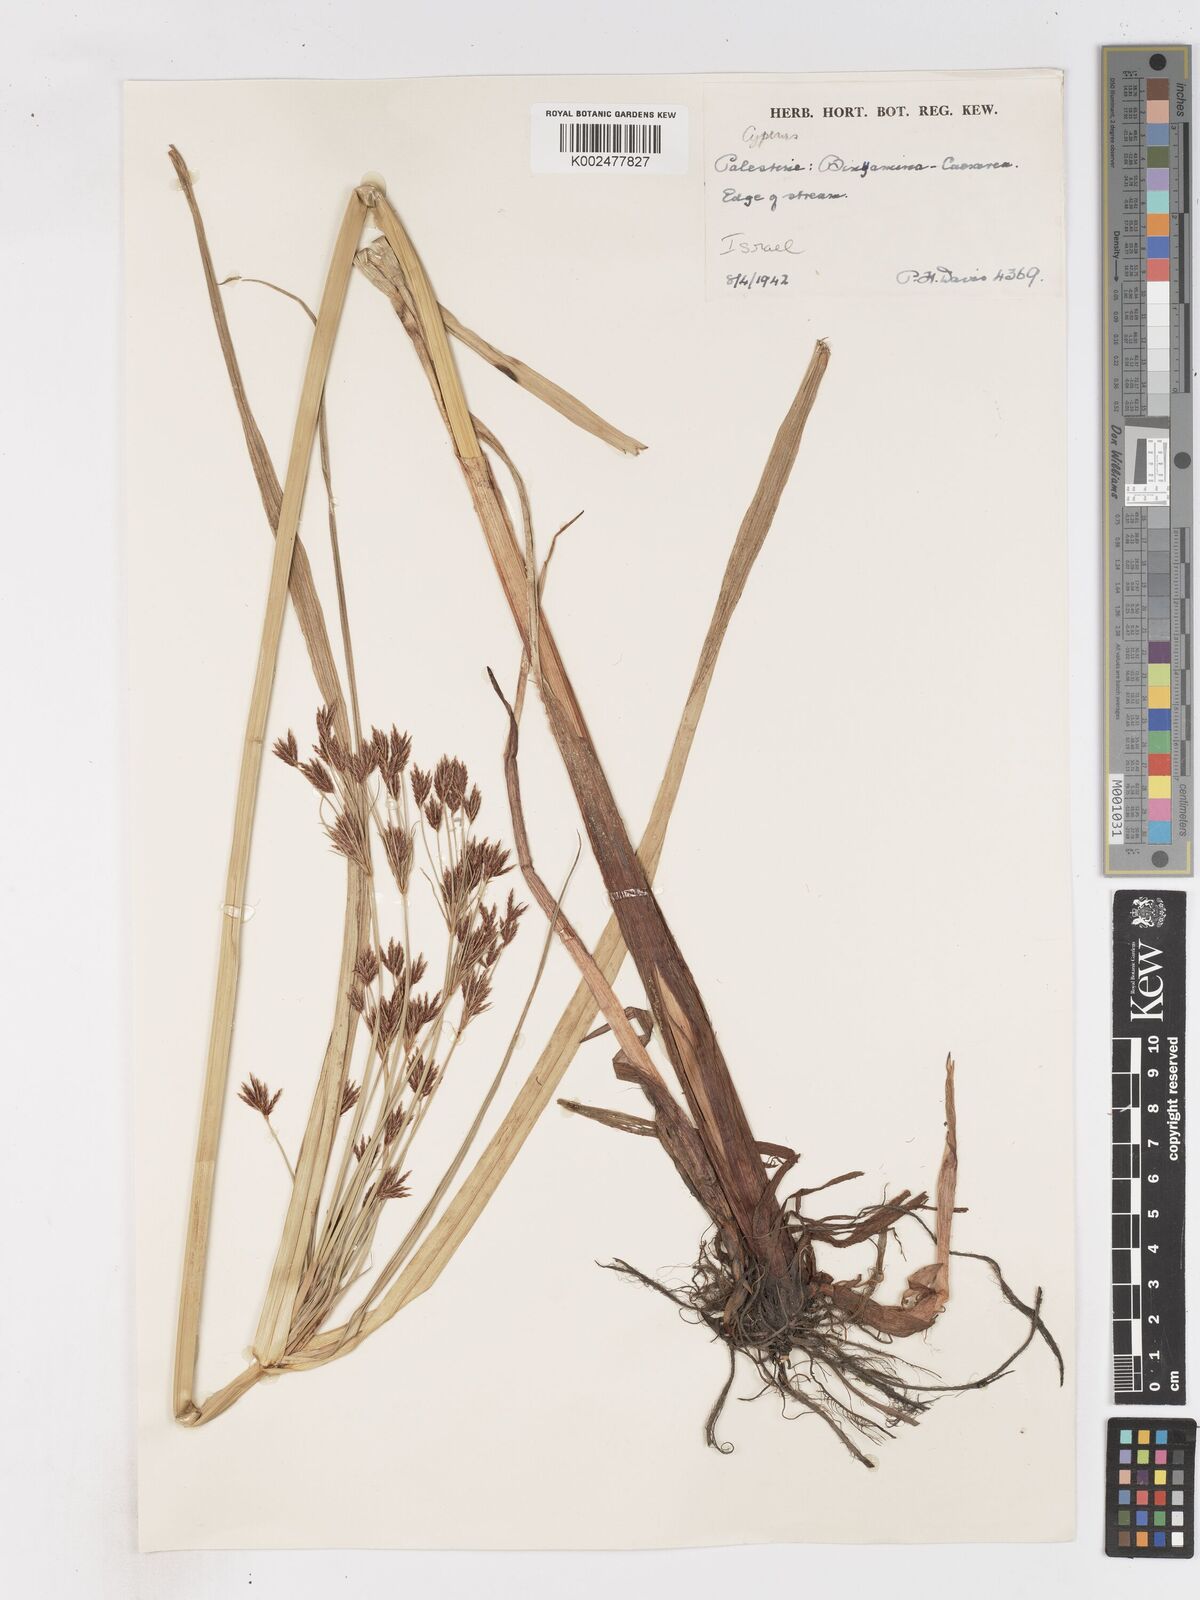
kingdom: Plantae
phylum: Tracheophyta
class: Liliopsida
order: Poales
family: Cyperaceae
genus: Cyperus
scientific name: Cyperus longus
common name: Galingale
